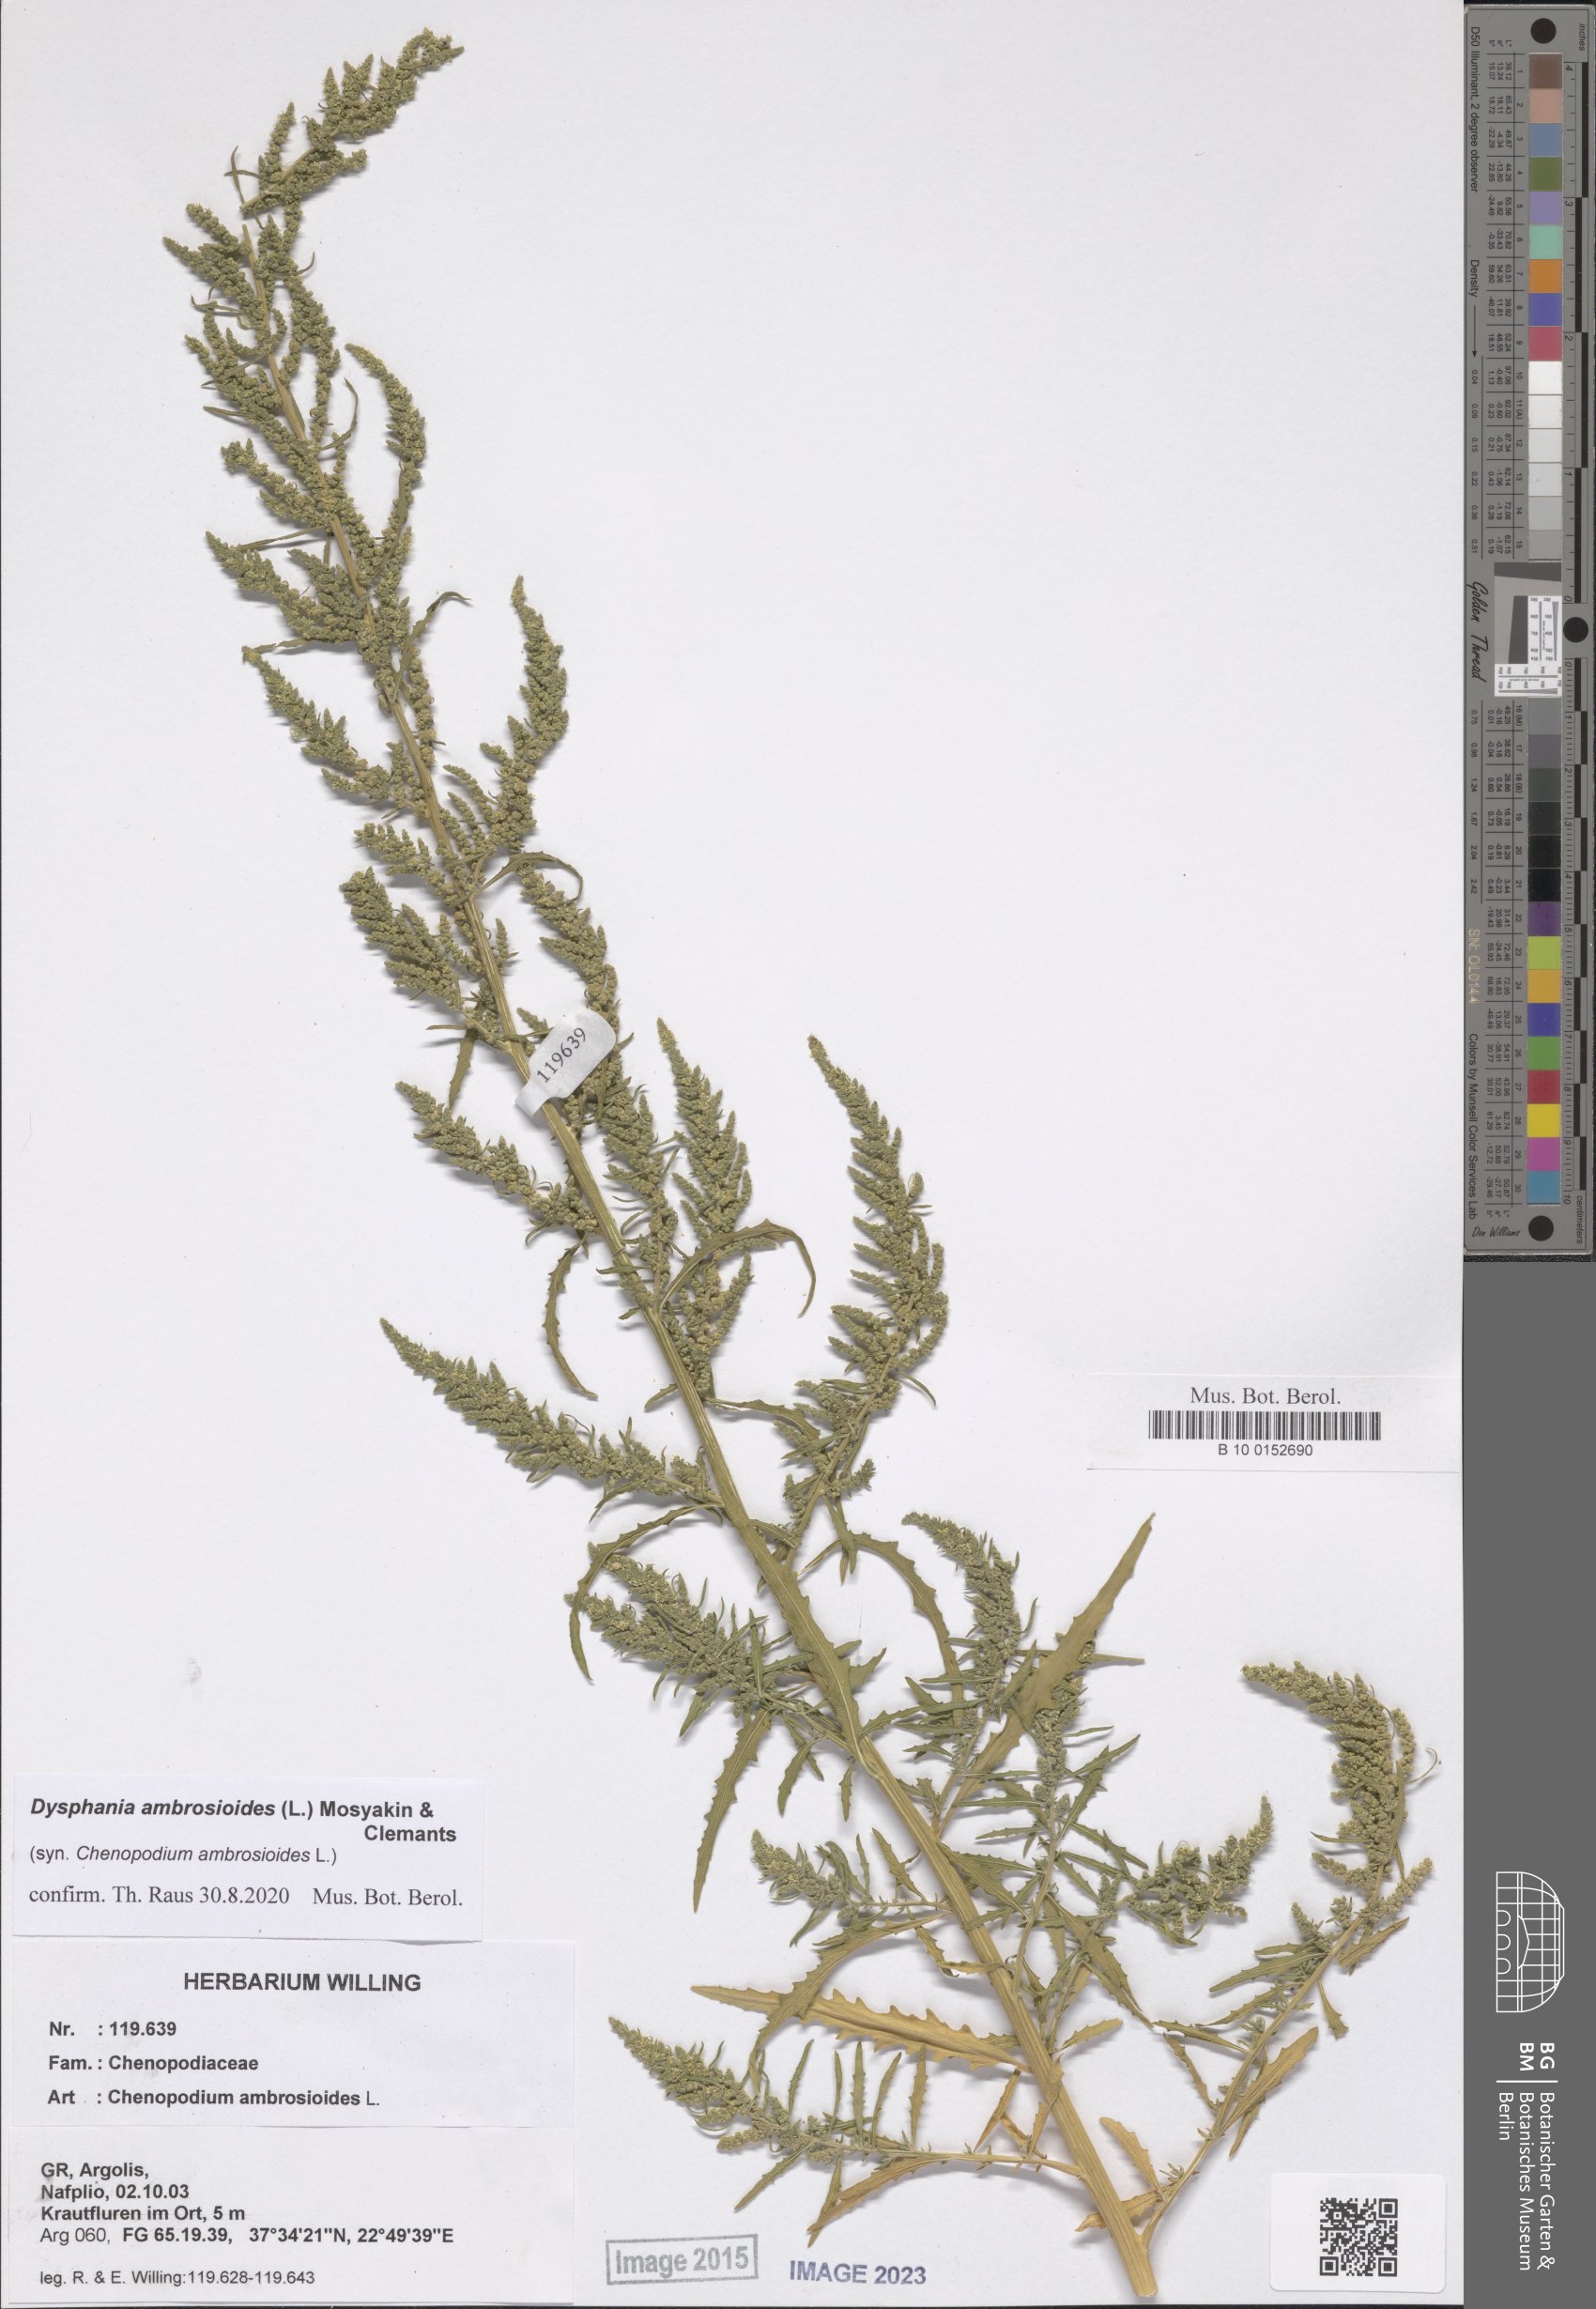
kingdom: Plantae
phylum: Tracheophyta
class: Magnoliopsida
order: Caryophyllales
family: Amaranthaceae
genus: Dysphania
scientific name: Dysphania ambrosioides
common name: Wormseed
